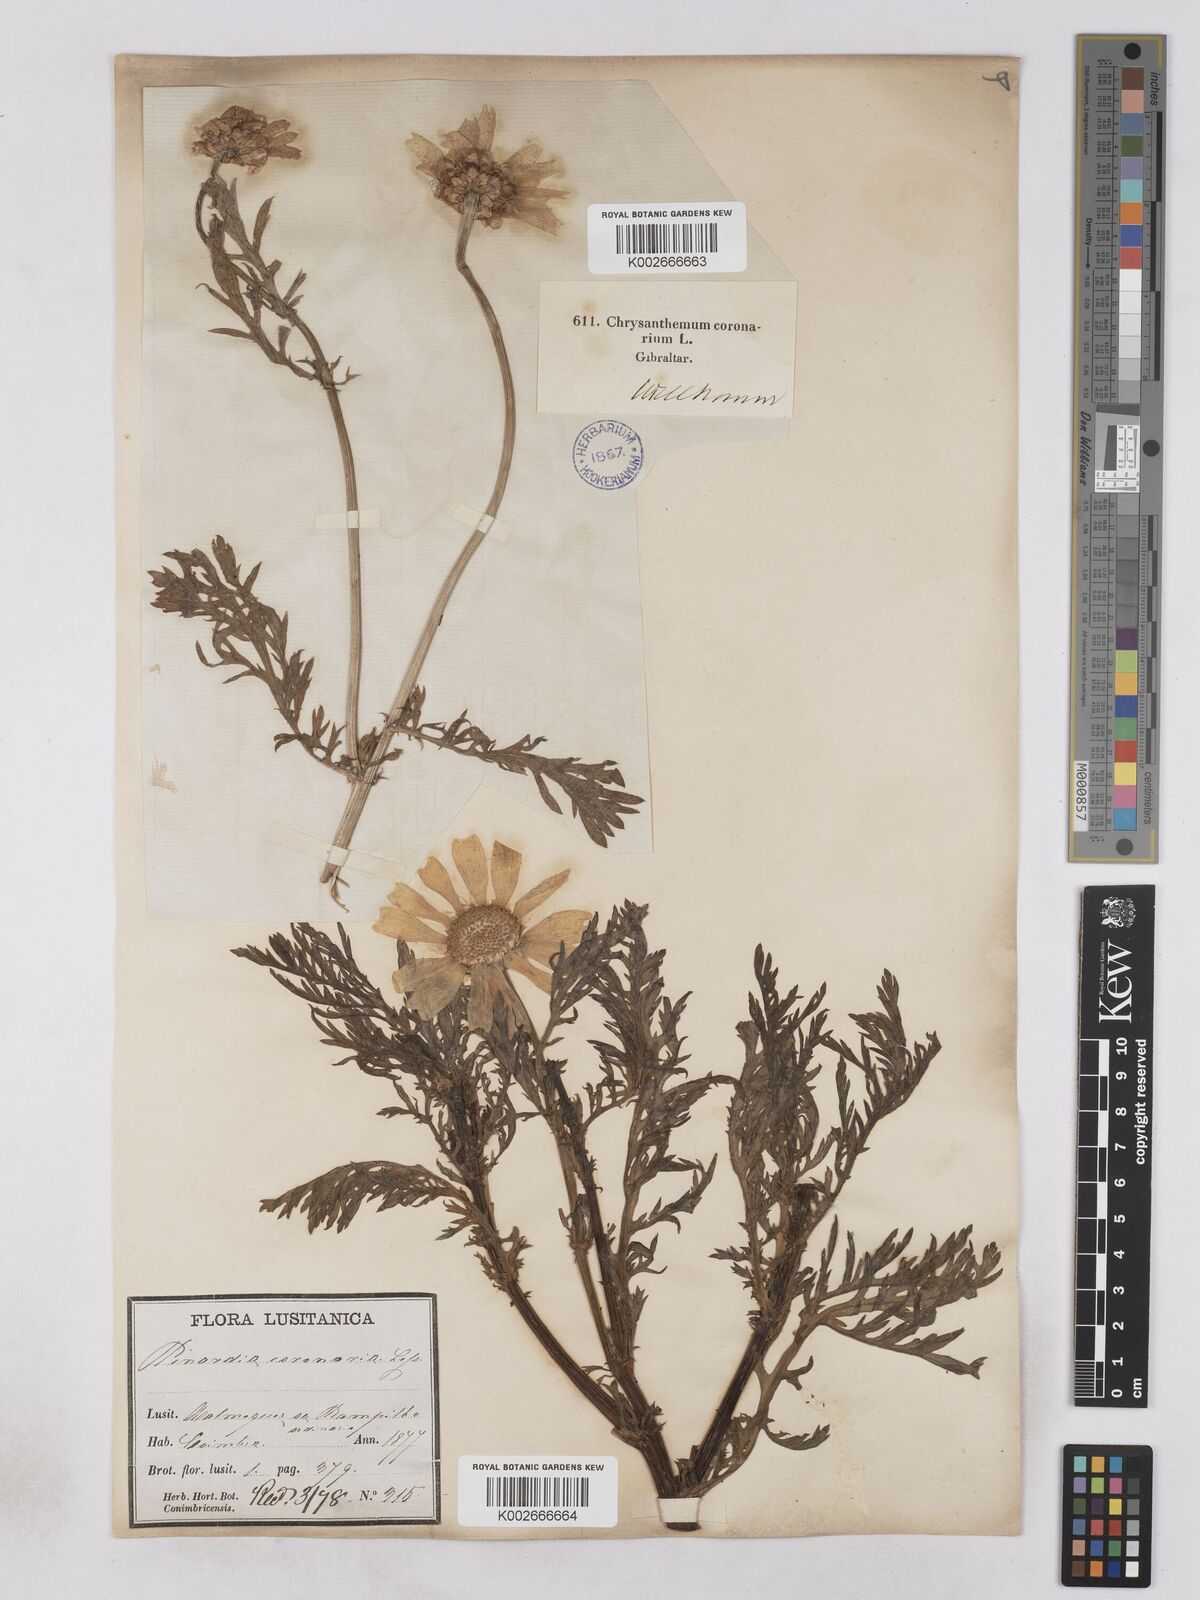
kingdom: Plantae
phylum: Tracheophyta
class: Magnoliopsida
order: Asterales
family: Asteraceae
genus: Glebionis
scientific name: Glebionis coronaria
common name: Crowndaisy
